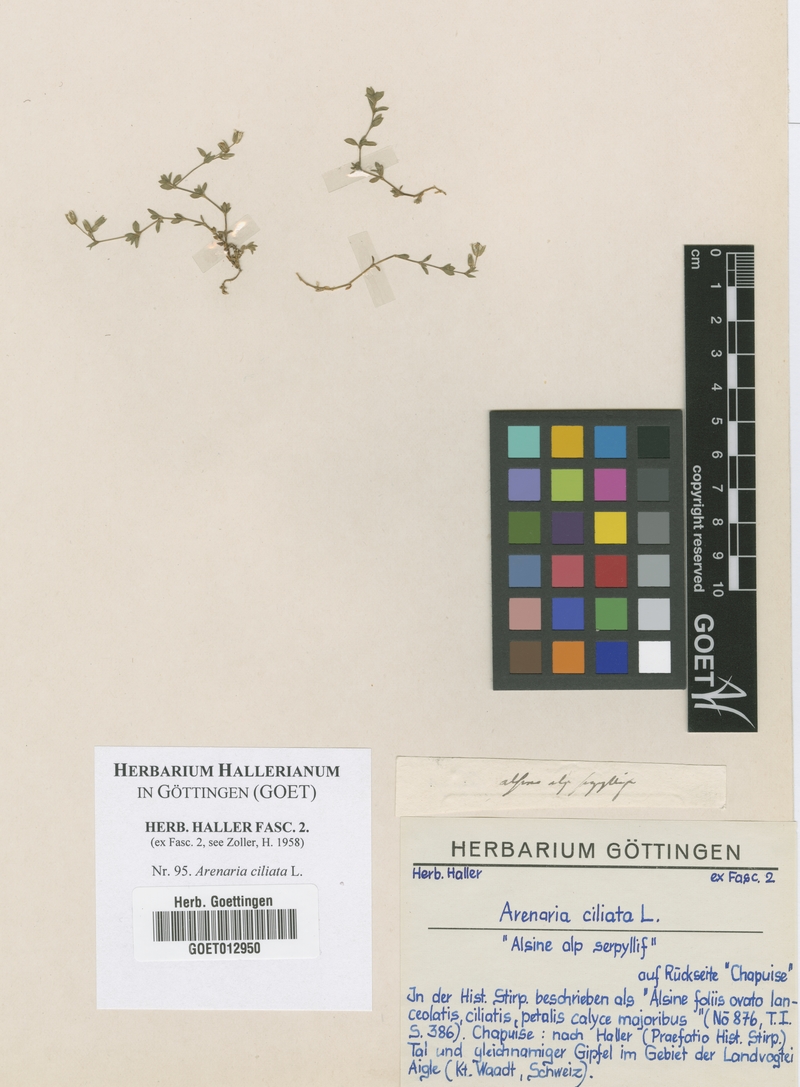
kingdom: Plantae
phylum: Tracheophyta
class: Magnoliopsida
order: Caryophyllales
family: Caryophyllaceae
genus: Arenaria
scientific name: Arenaria ciliata
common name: Fringed sandwort
